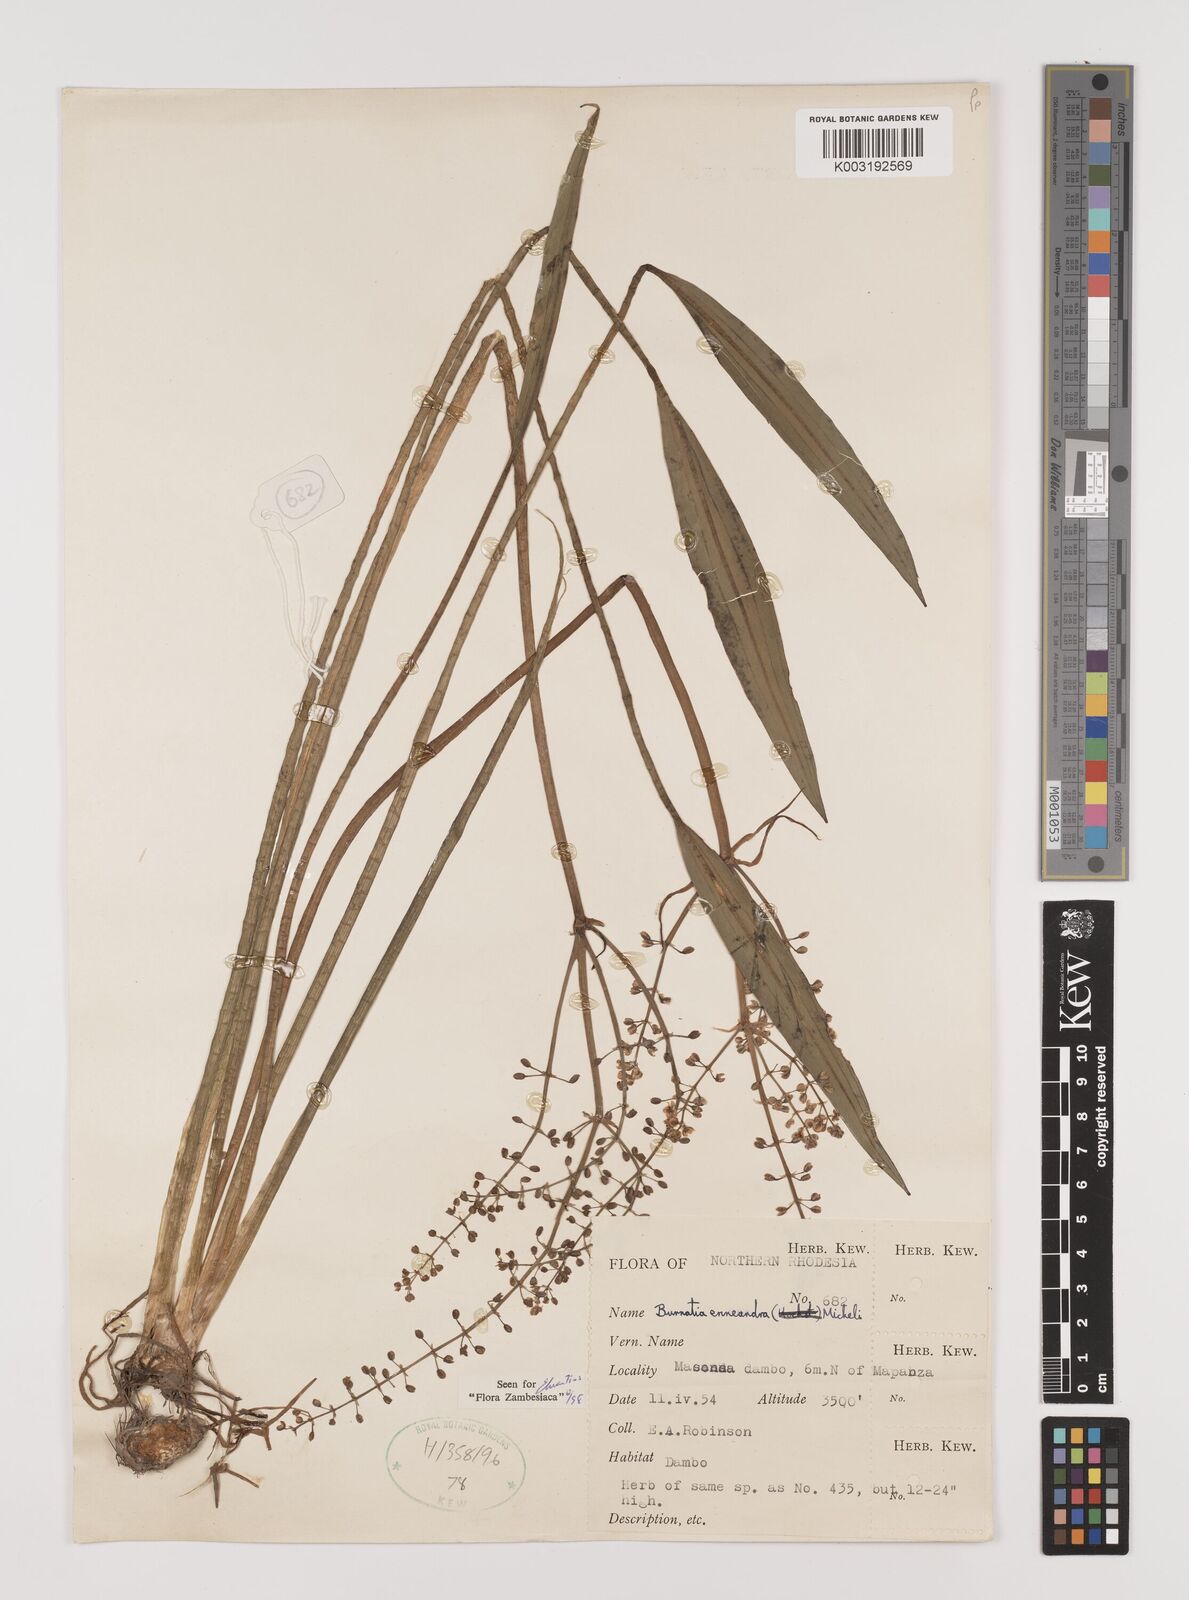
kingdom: Plantae
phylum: Tracheophyta
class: Liliopsida
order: Alismatales
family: Alismataceae
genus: Burnatia
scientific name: Burnatia enneandra
